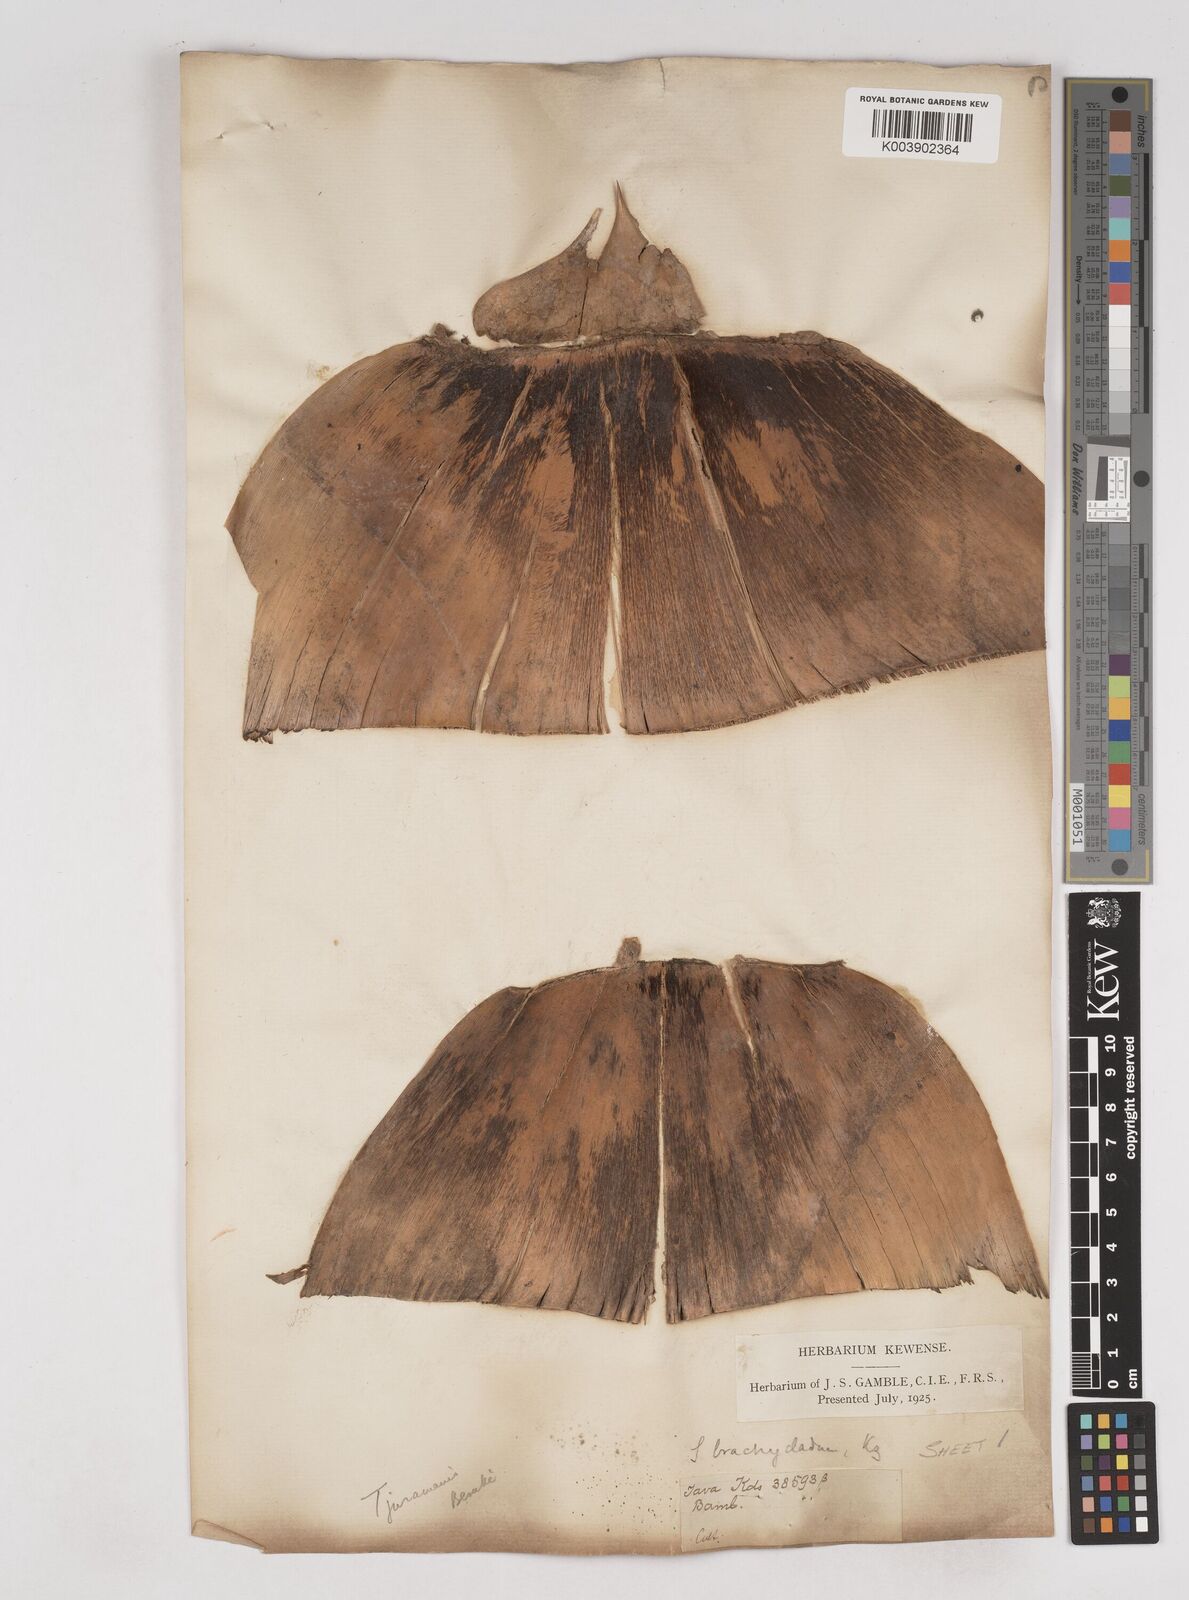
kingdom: Plantae
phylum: Tracheophyta
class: Liliopsida
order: Poales
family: Poaceae
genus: Schizostachyum
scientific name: Schizostachyum zollingeri
